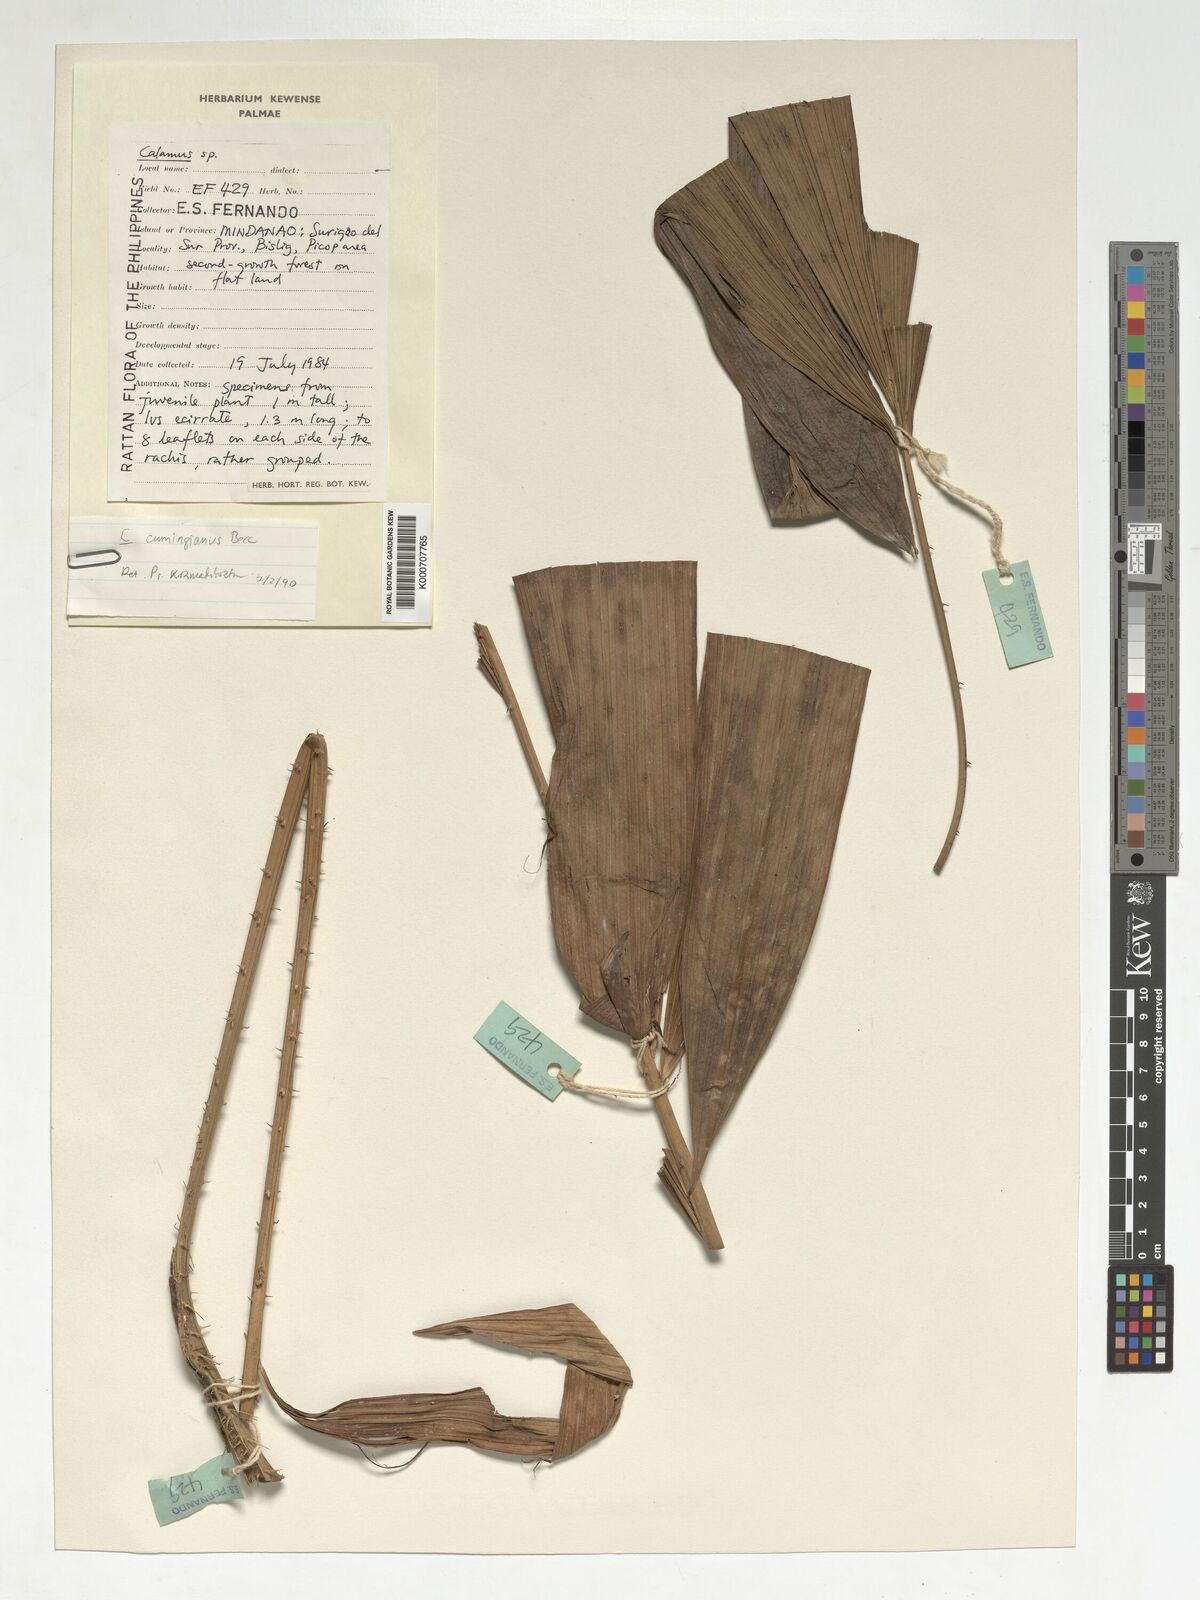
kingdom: Plantae
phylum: Tracheophyta
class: Liliopsida
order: Arecales
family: Arecaceae
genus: Calamus
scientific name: Calamus cumingianus
